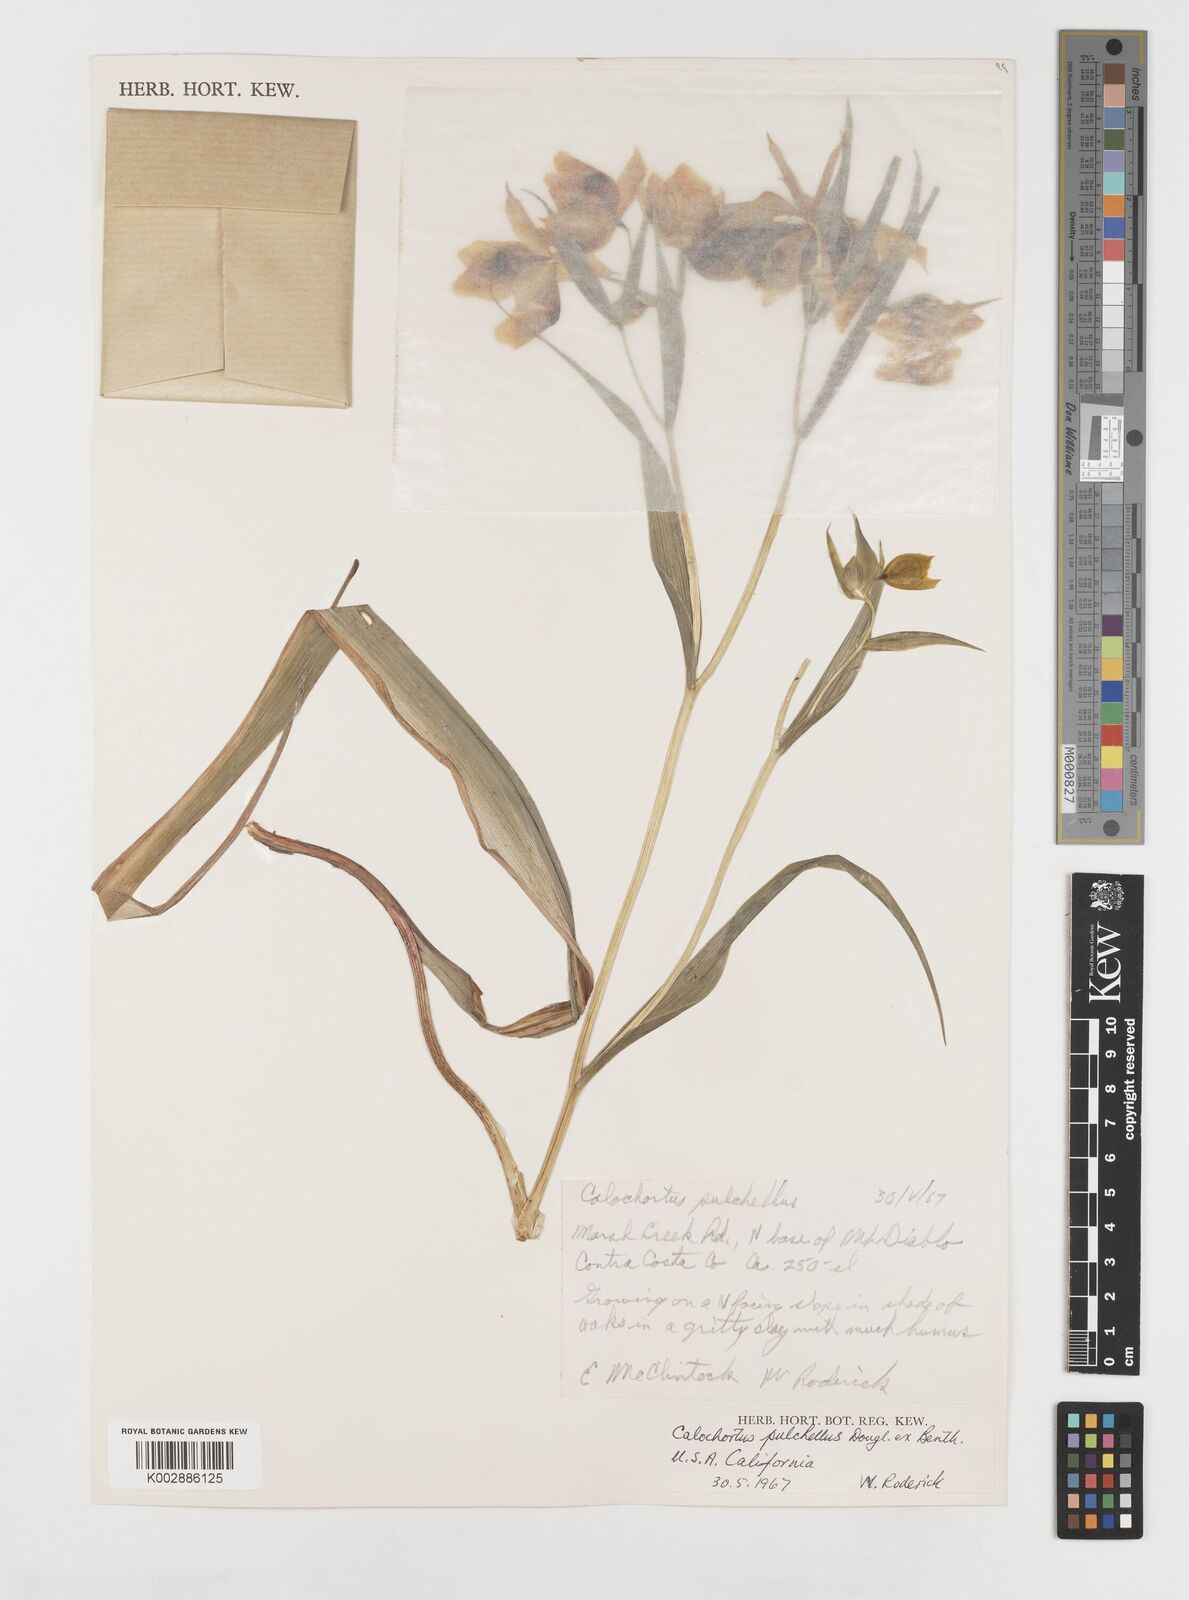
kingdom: Plantae
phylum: Tracheophyta
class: Liliopsida
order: Liliales
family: Liliaceae
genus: Calochortus
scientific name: Calochortus pulchellus
